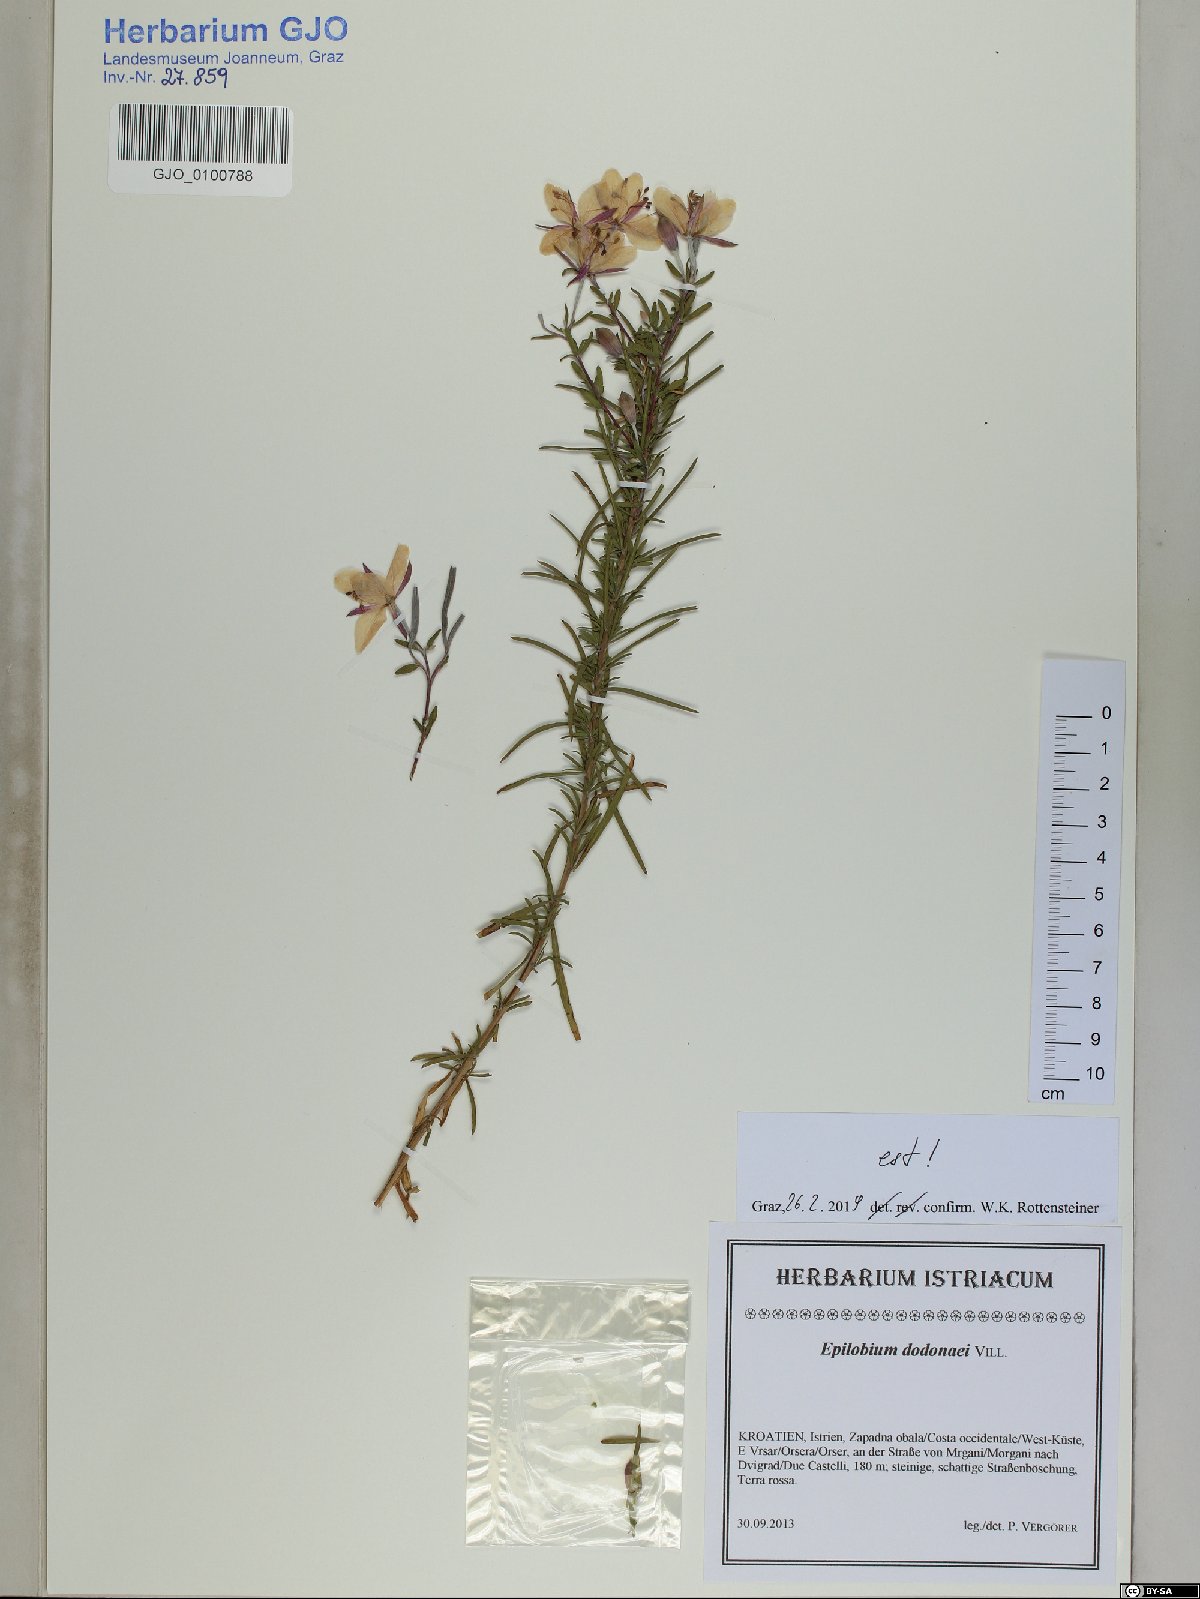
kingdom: Plantae
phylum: Tracheophyta
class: Magnoliopsida
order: Myrtales
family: Onagraceae
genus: Chamaenerion
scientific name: Chamaenerion dodonaei
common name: Rosemary-leaved willowherb
